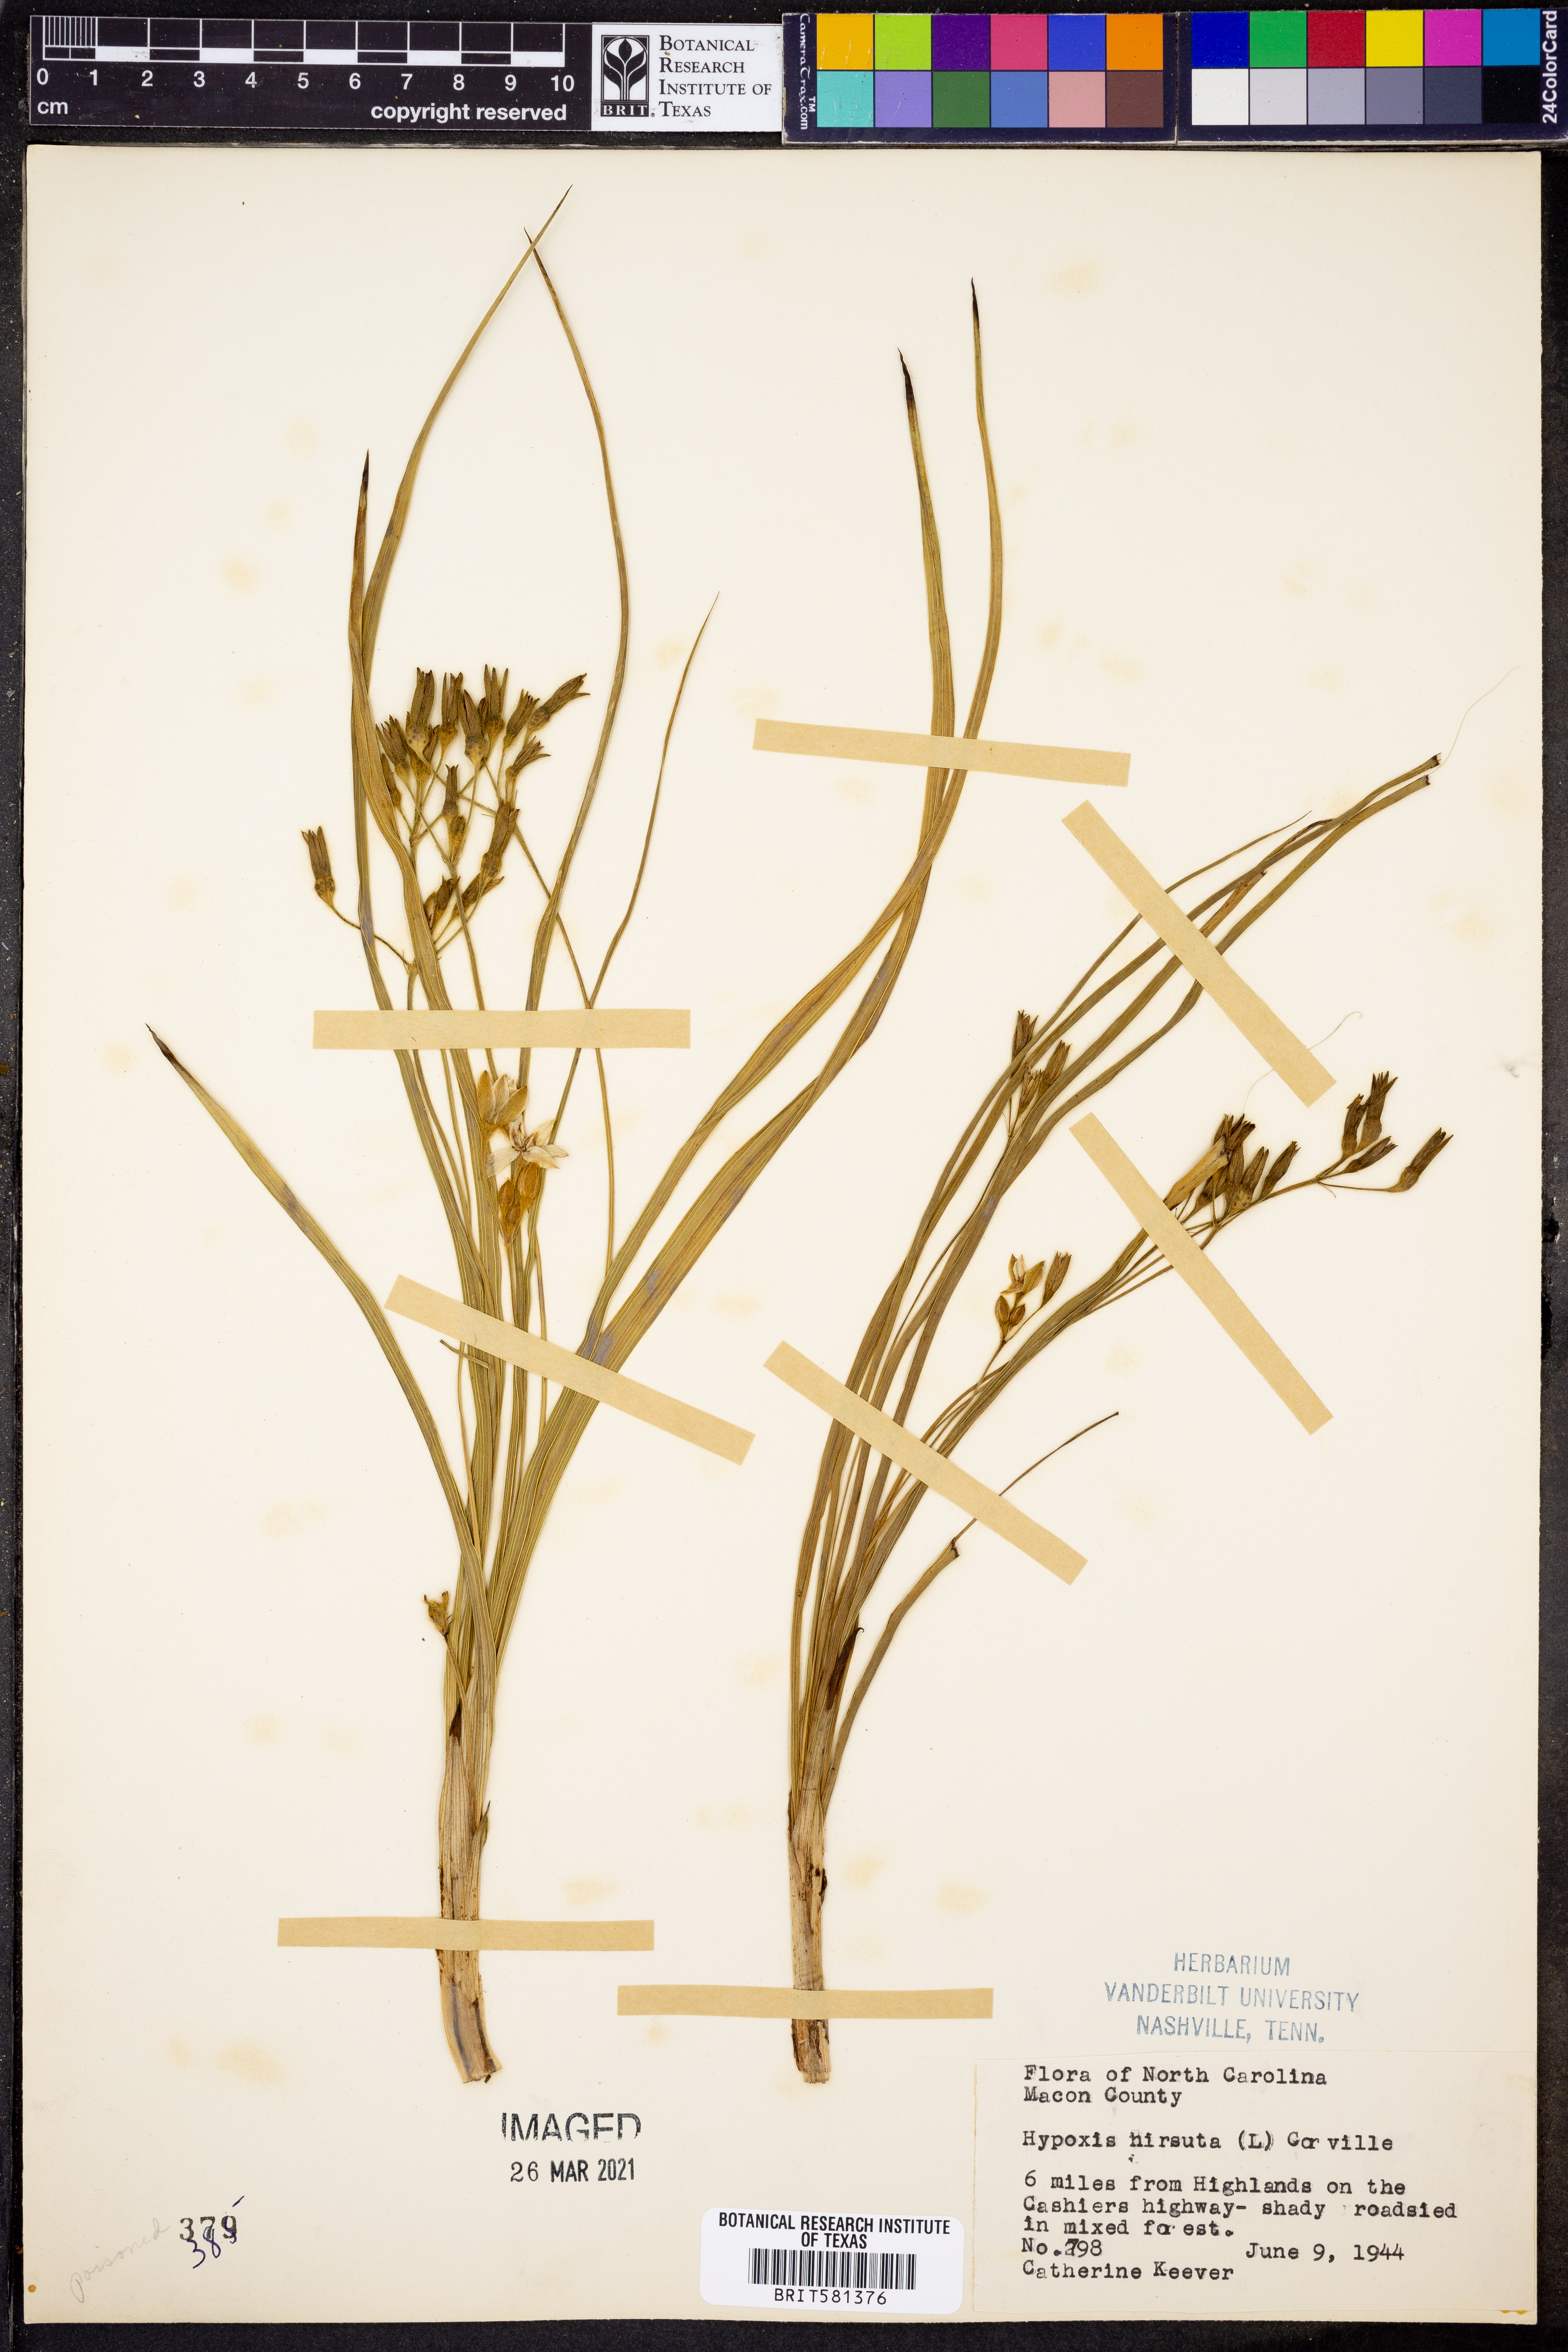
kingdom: Plantae
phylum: Tracheophyta
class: Liliopsida
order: Asparagales
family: Hypoxidaceae
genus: Hypoxis
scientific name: Hypoxis hirsuta
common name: Common goldstar
